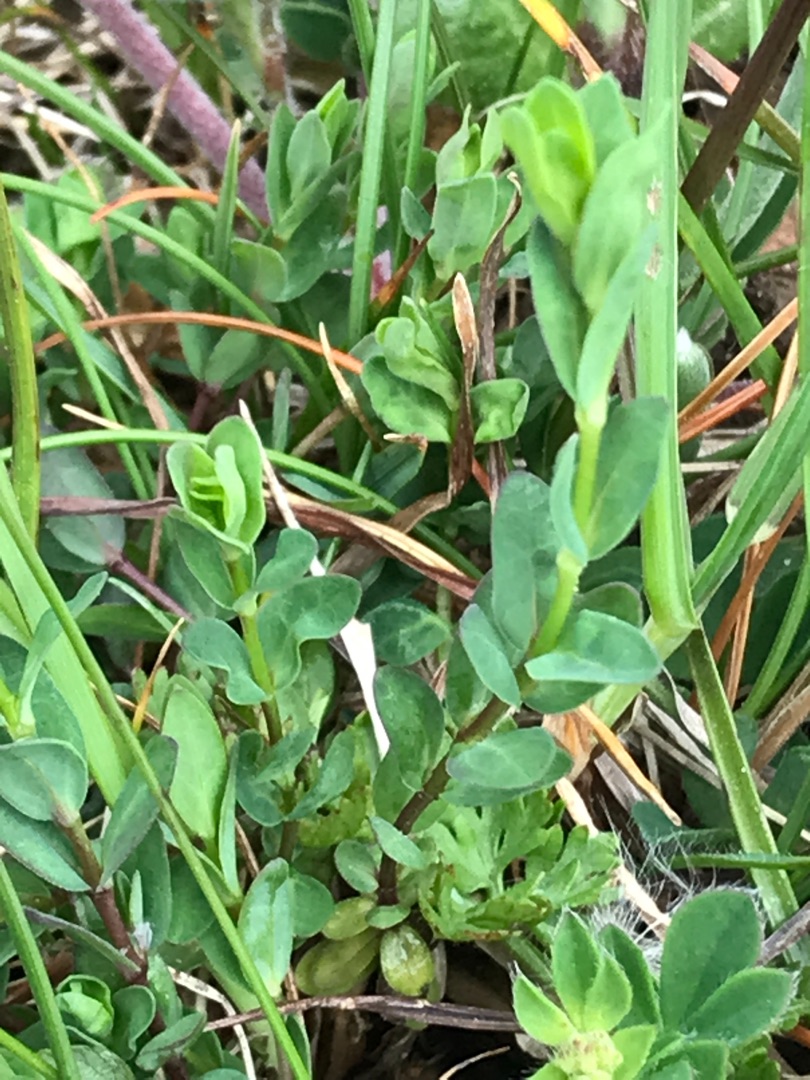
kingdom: Plantae
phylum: Tracheophyta
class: Magnoliopsida
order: Malpighiales
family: Linaceae
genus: Linum
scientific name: Linum catharticum
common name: Vild hør
